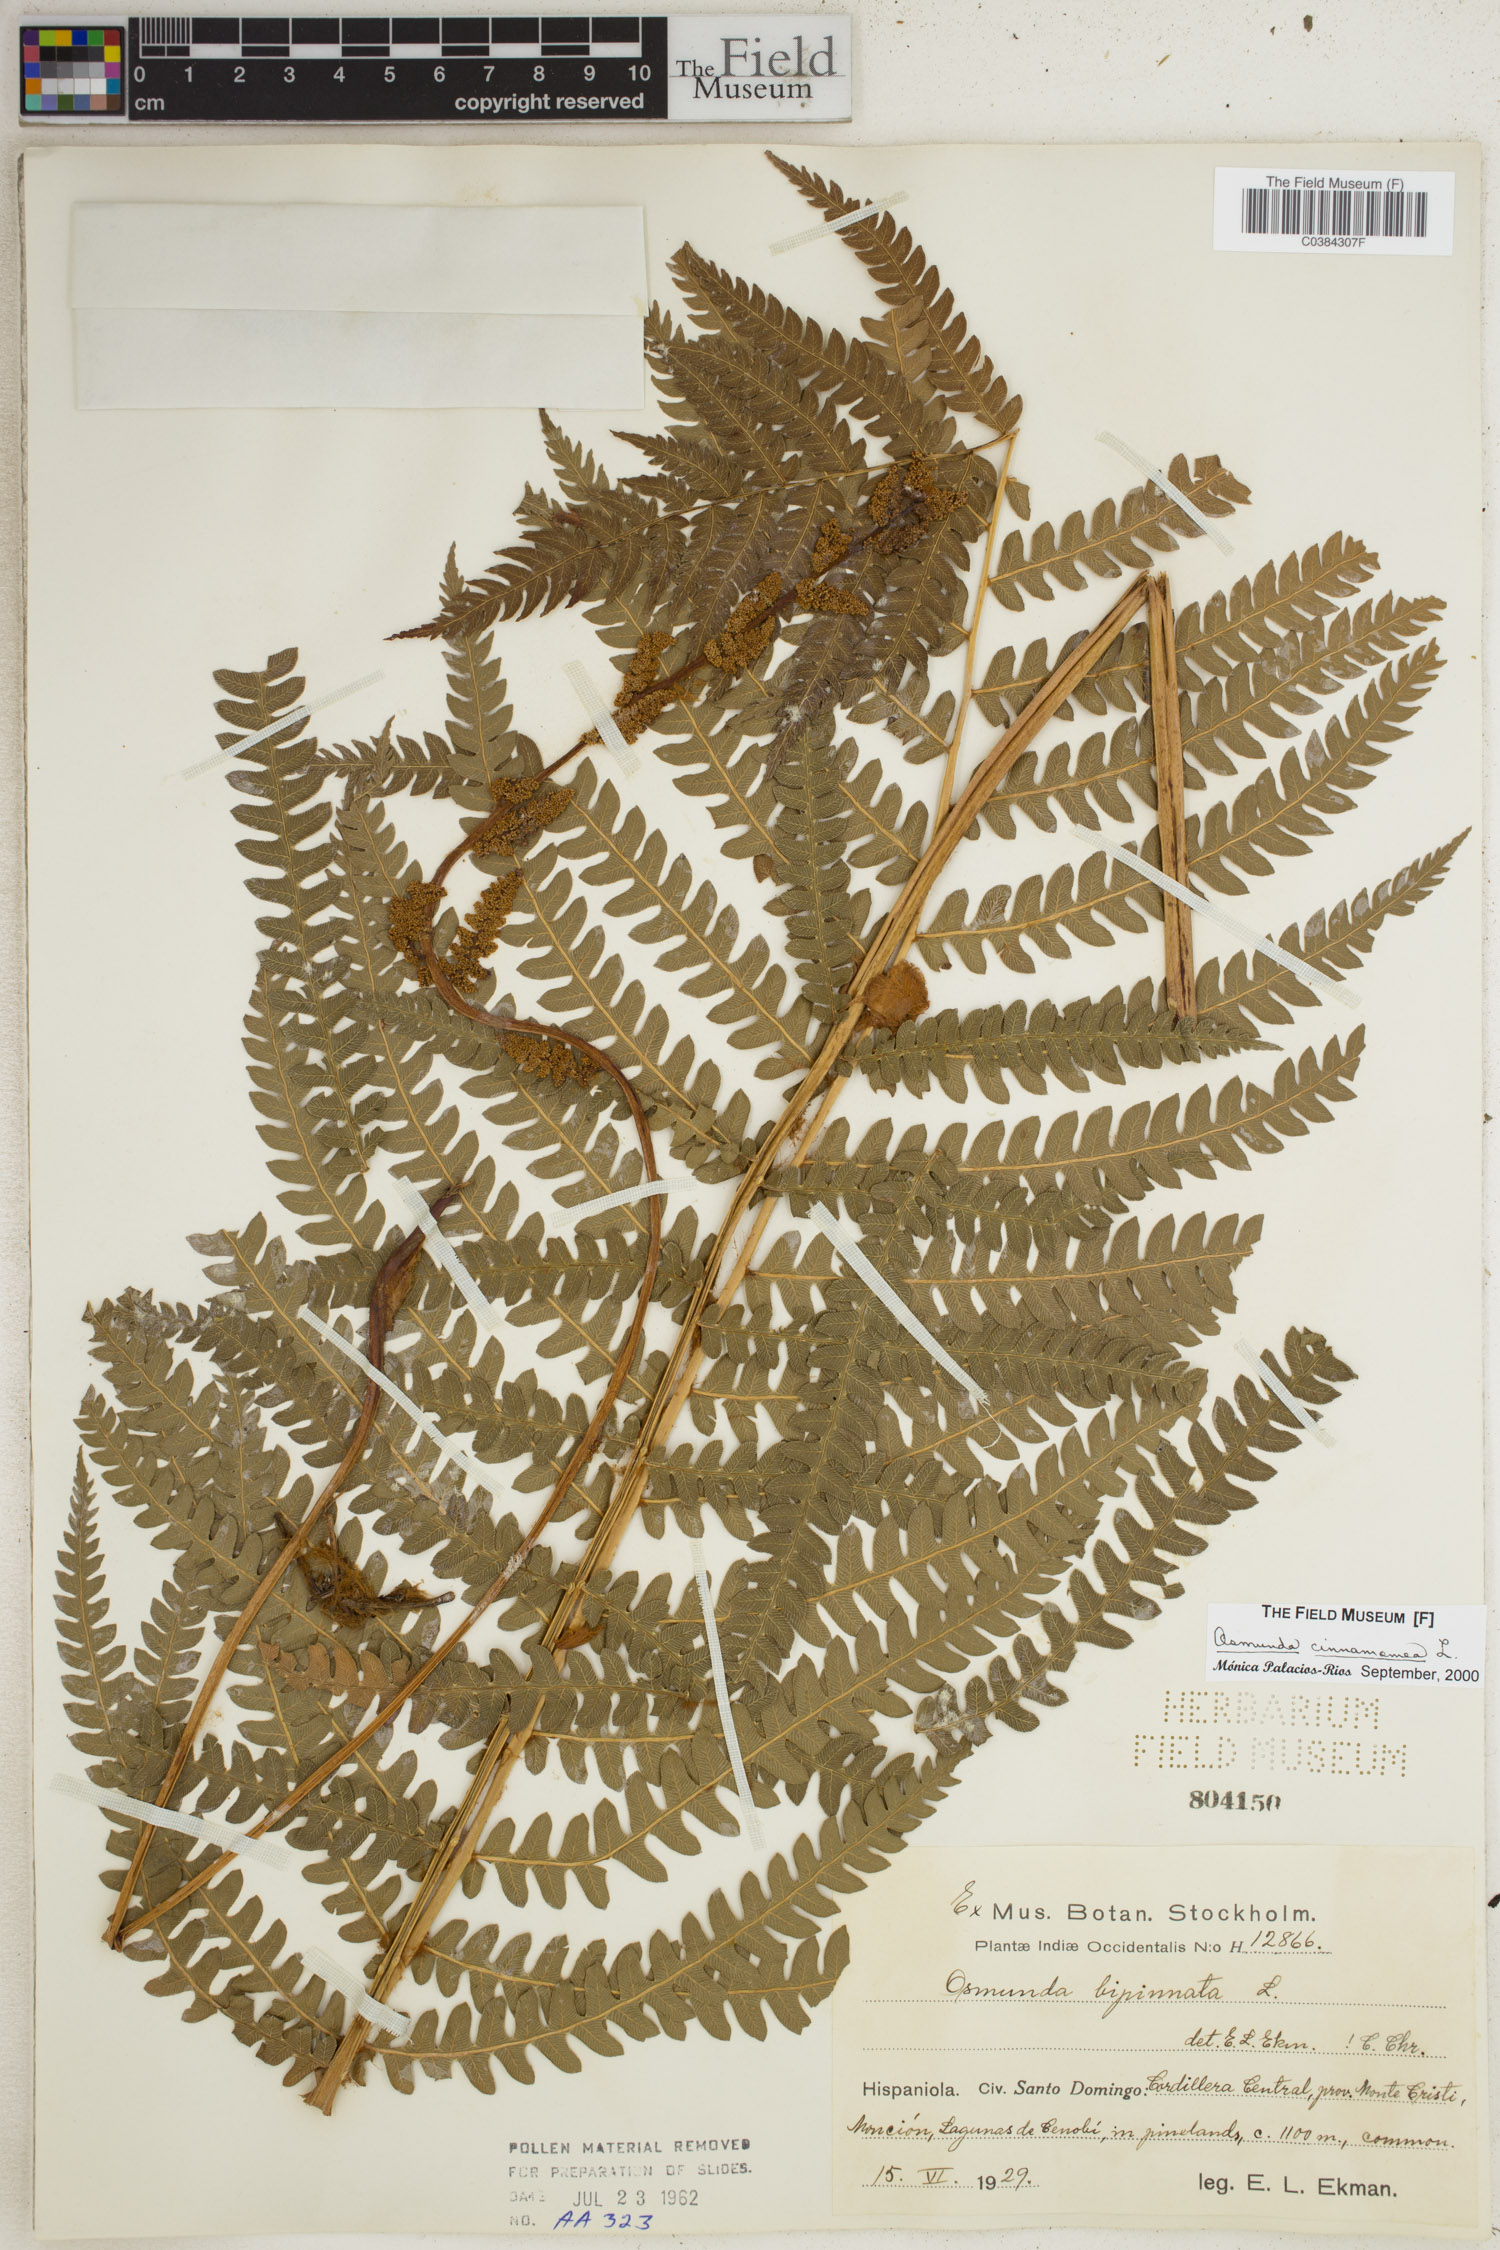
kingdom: Plantae
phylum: Tracheophyta
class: Polypodiopsida
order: Osmundales
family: Osmundaceae
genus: Osmundastrum
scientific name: Osmundastrum cinnamomeum
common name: Cinnamon fern
